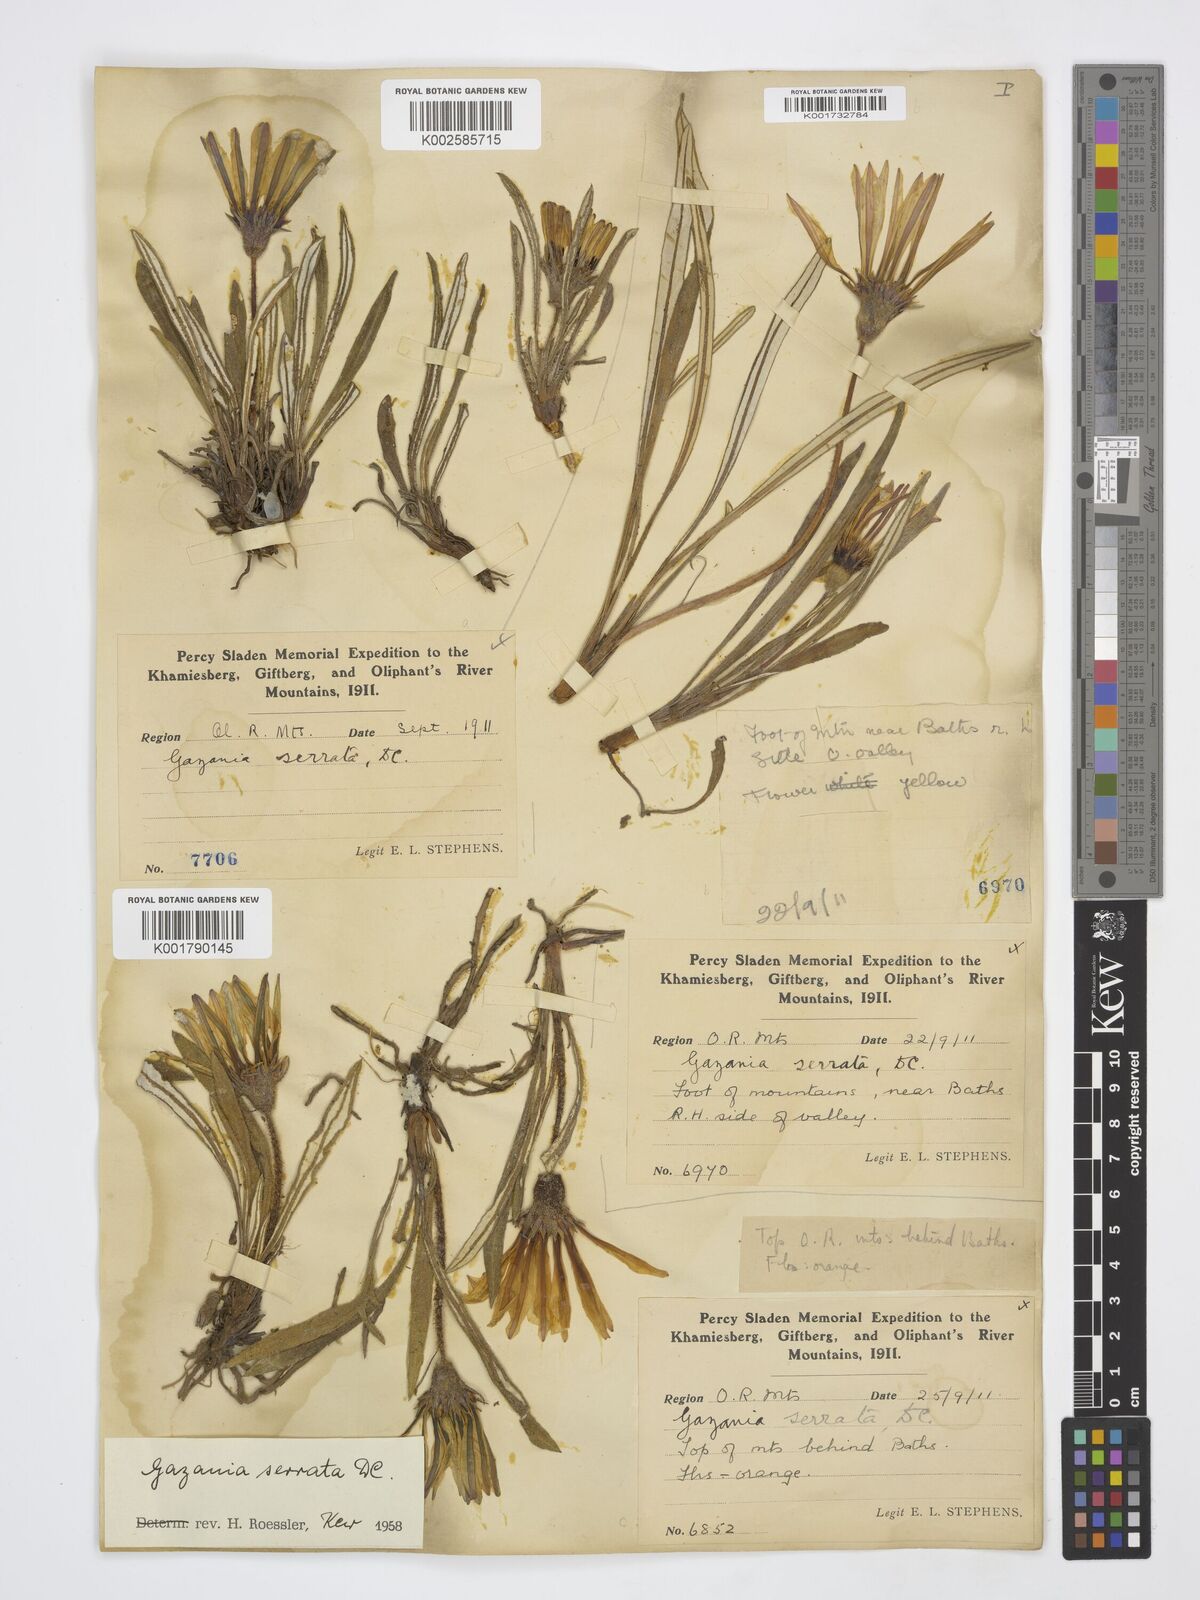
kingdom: Plantae
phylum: Tracheophyta
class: Magnoliopsida
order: Asterales
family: Asteraceae
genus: Gazania
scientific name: Gazania serrata
